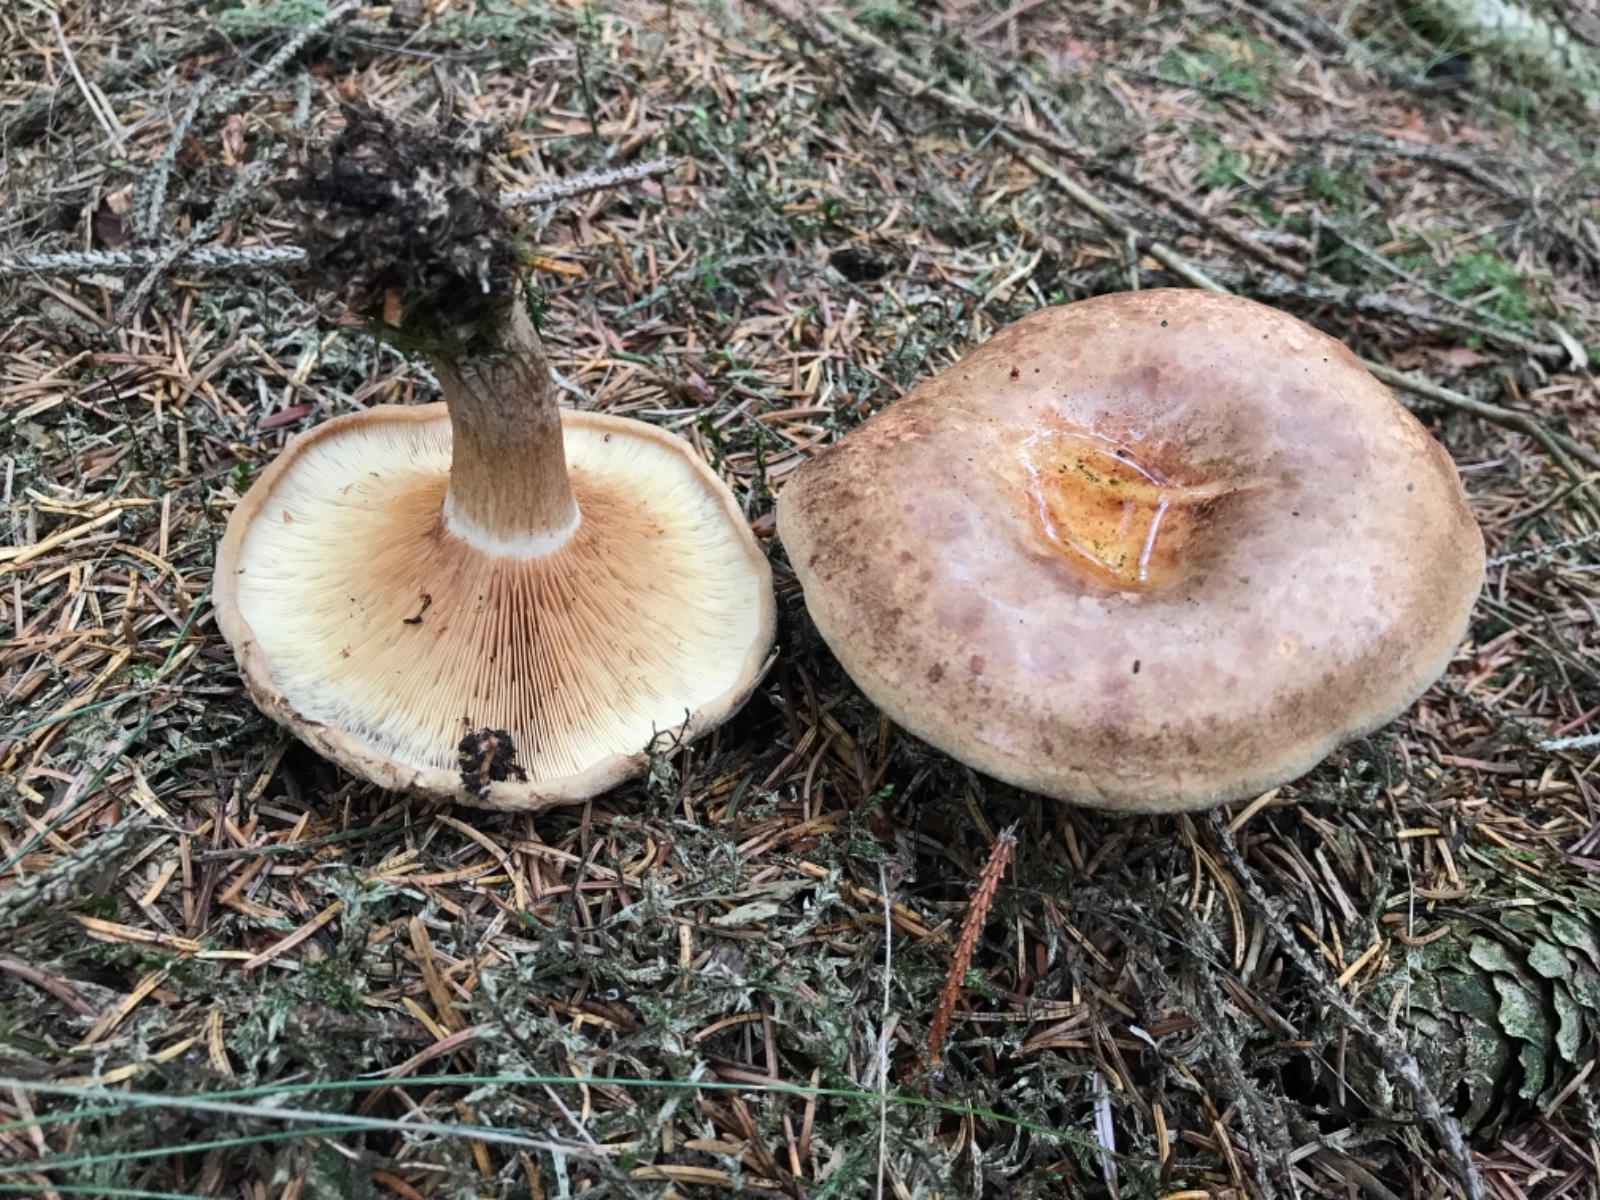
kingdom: Fungi
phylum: Basidiomycota
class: Agaricomycetes
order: Boletales
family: Paxillaceae
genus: Paxillus
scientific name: Paxillus involutus
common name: almindelig netbladhat
